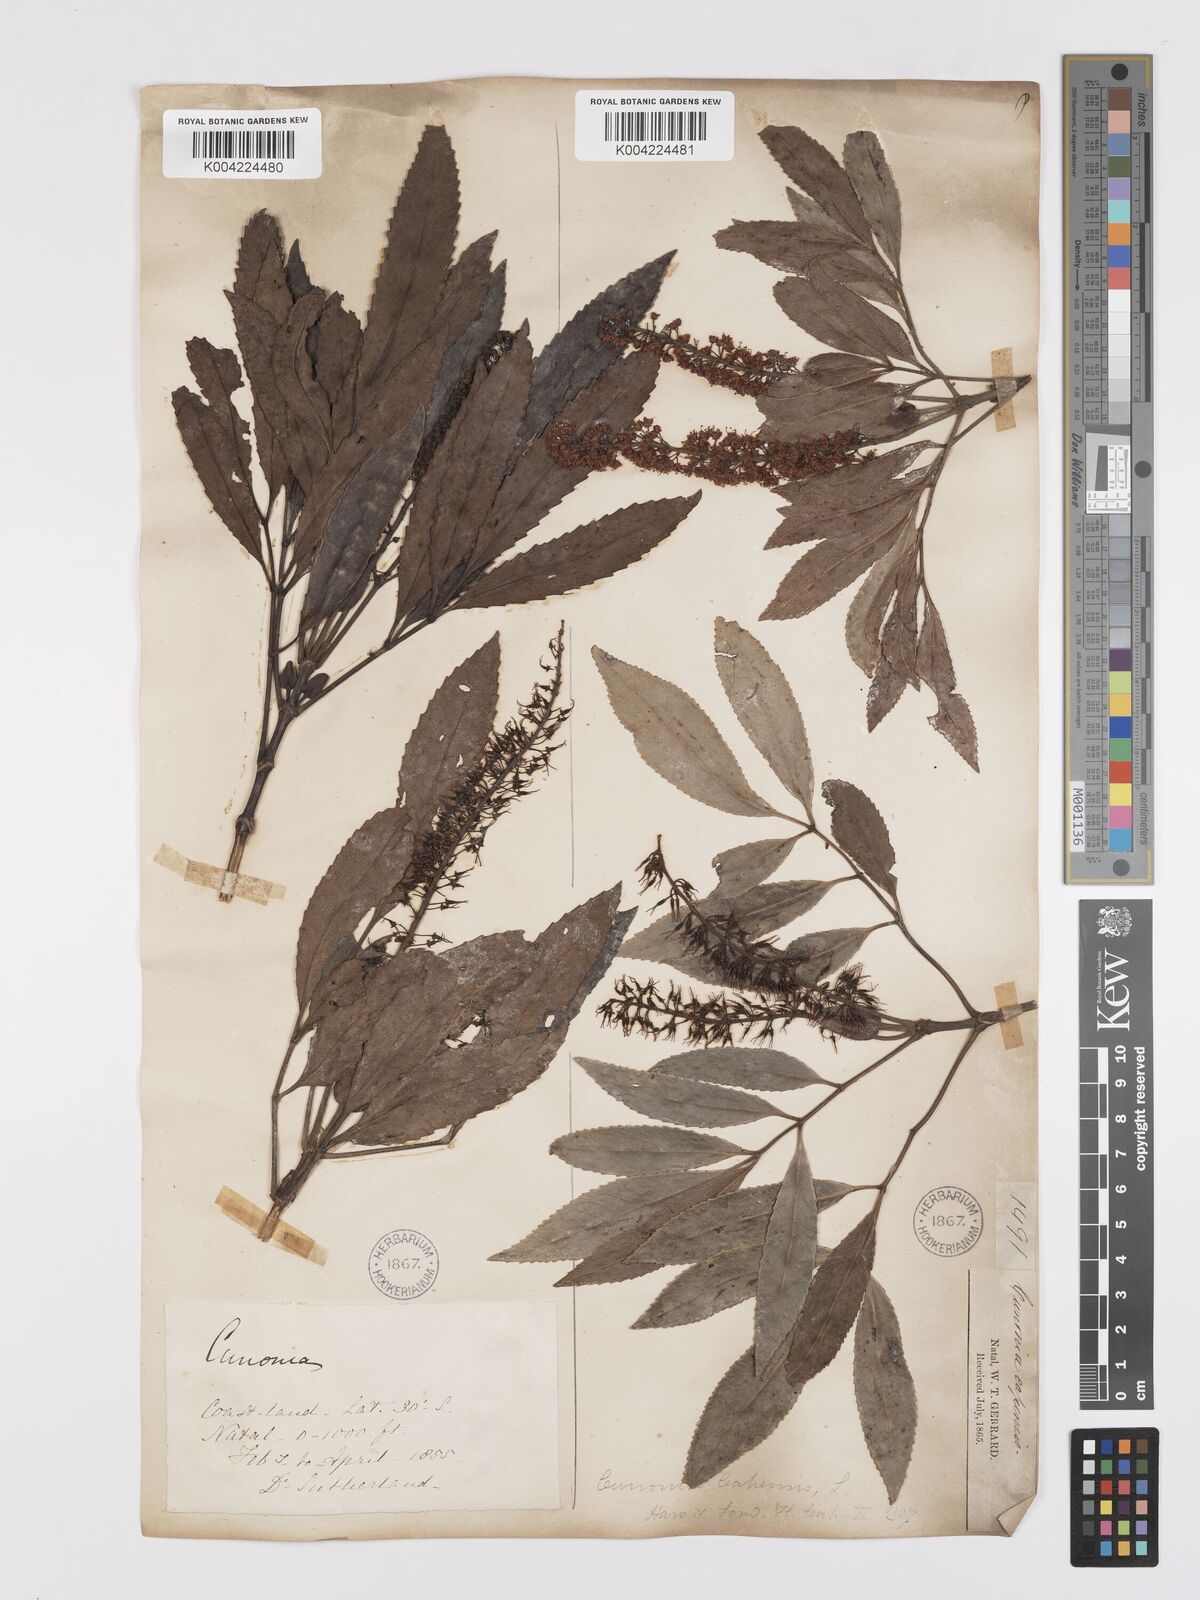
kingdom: Plantae
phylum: Tracheophyta
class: Magnoliopsida
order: Oxalidales
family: Cunoniaceae
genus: Cunonia
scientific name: Cunonia capensis
